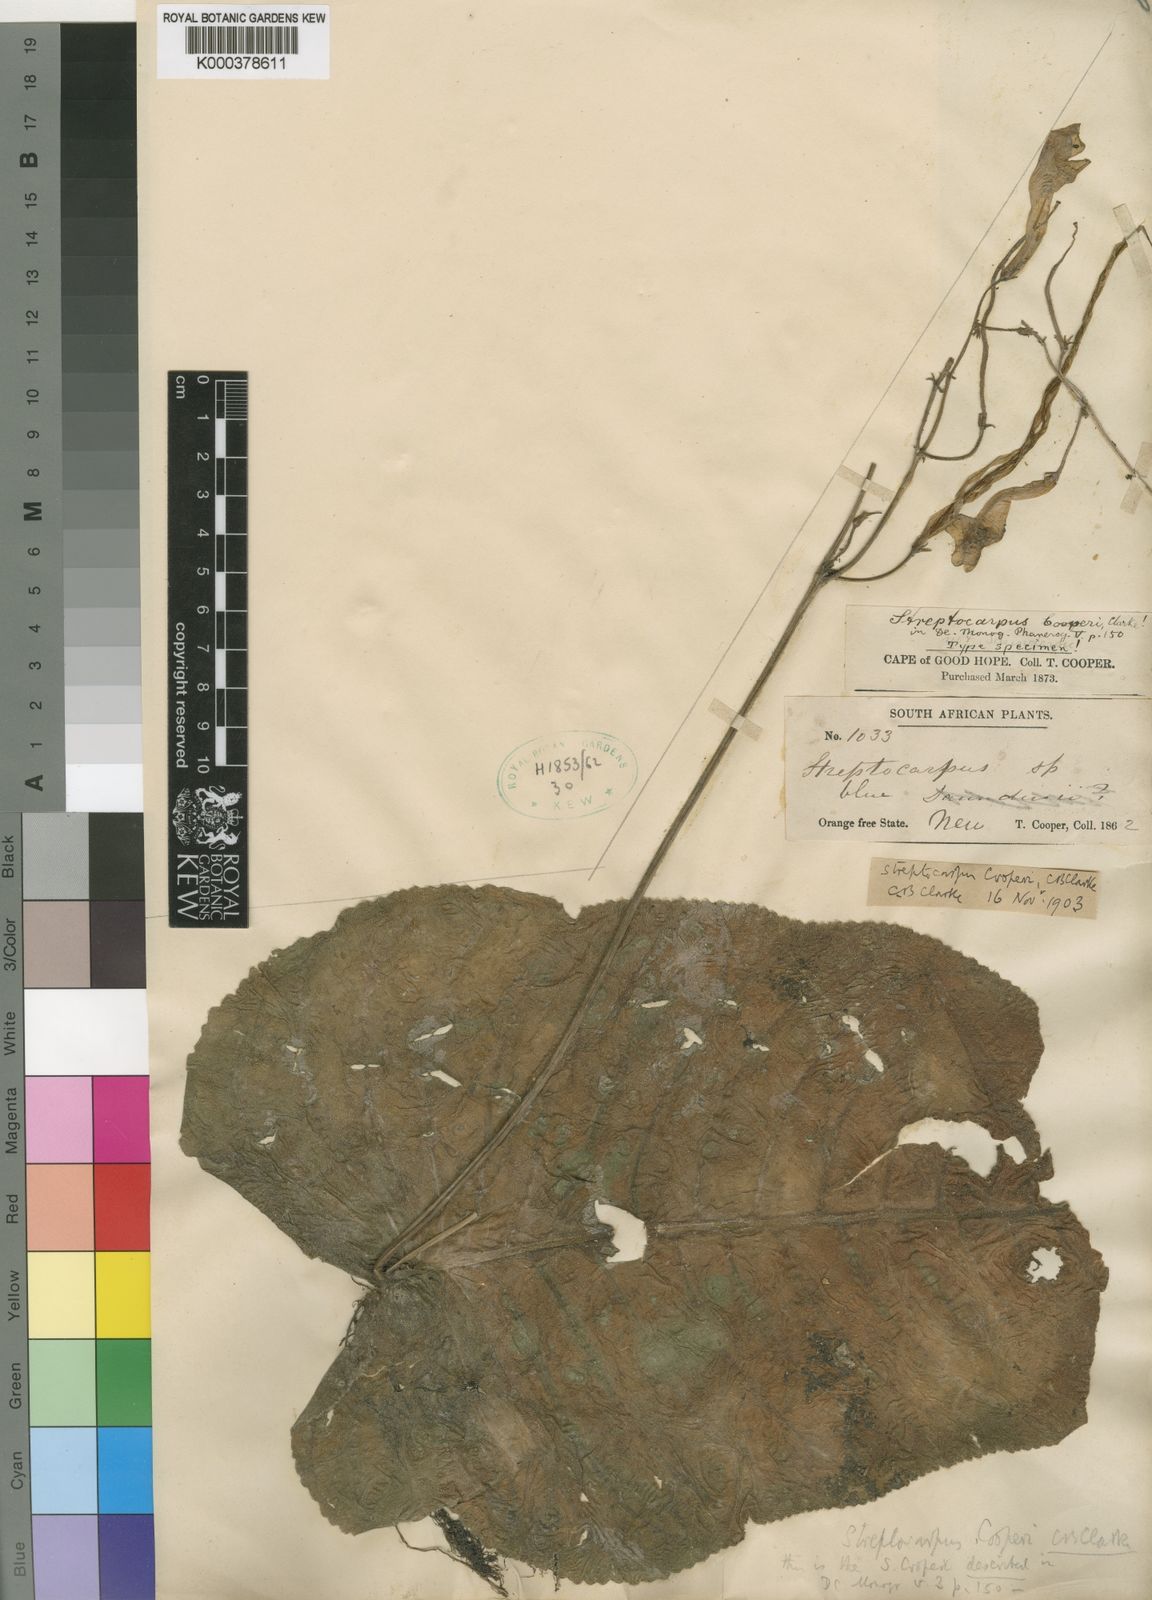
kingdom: Plantae
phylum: Tracheophyta
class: Magnoliopsida
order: Lamiales
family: Gesneriaceae
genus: Streptocarpus
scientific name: Streptocarpus cooperi
